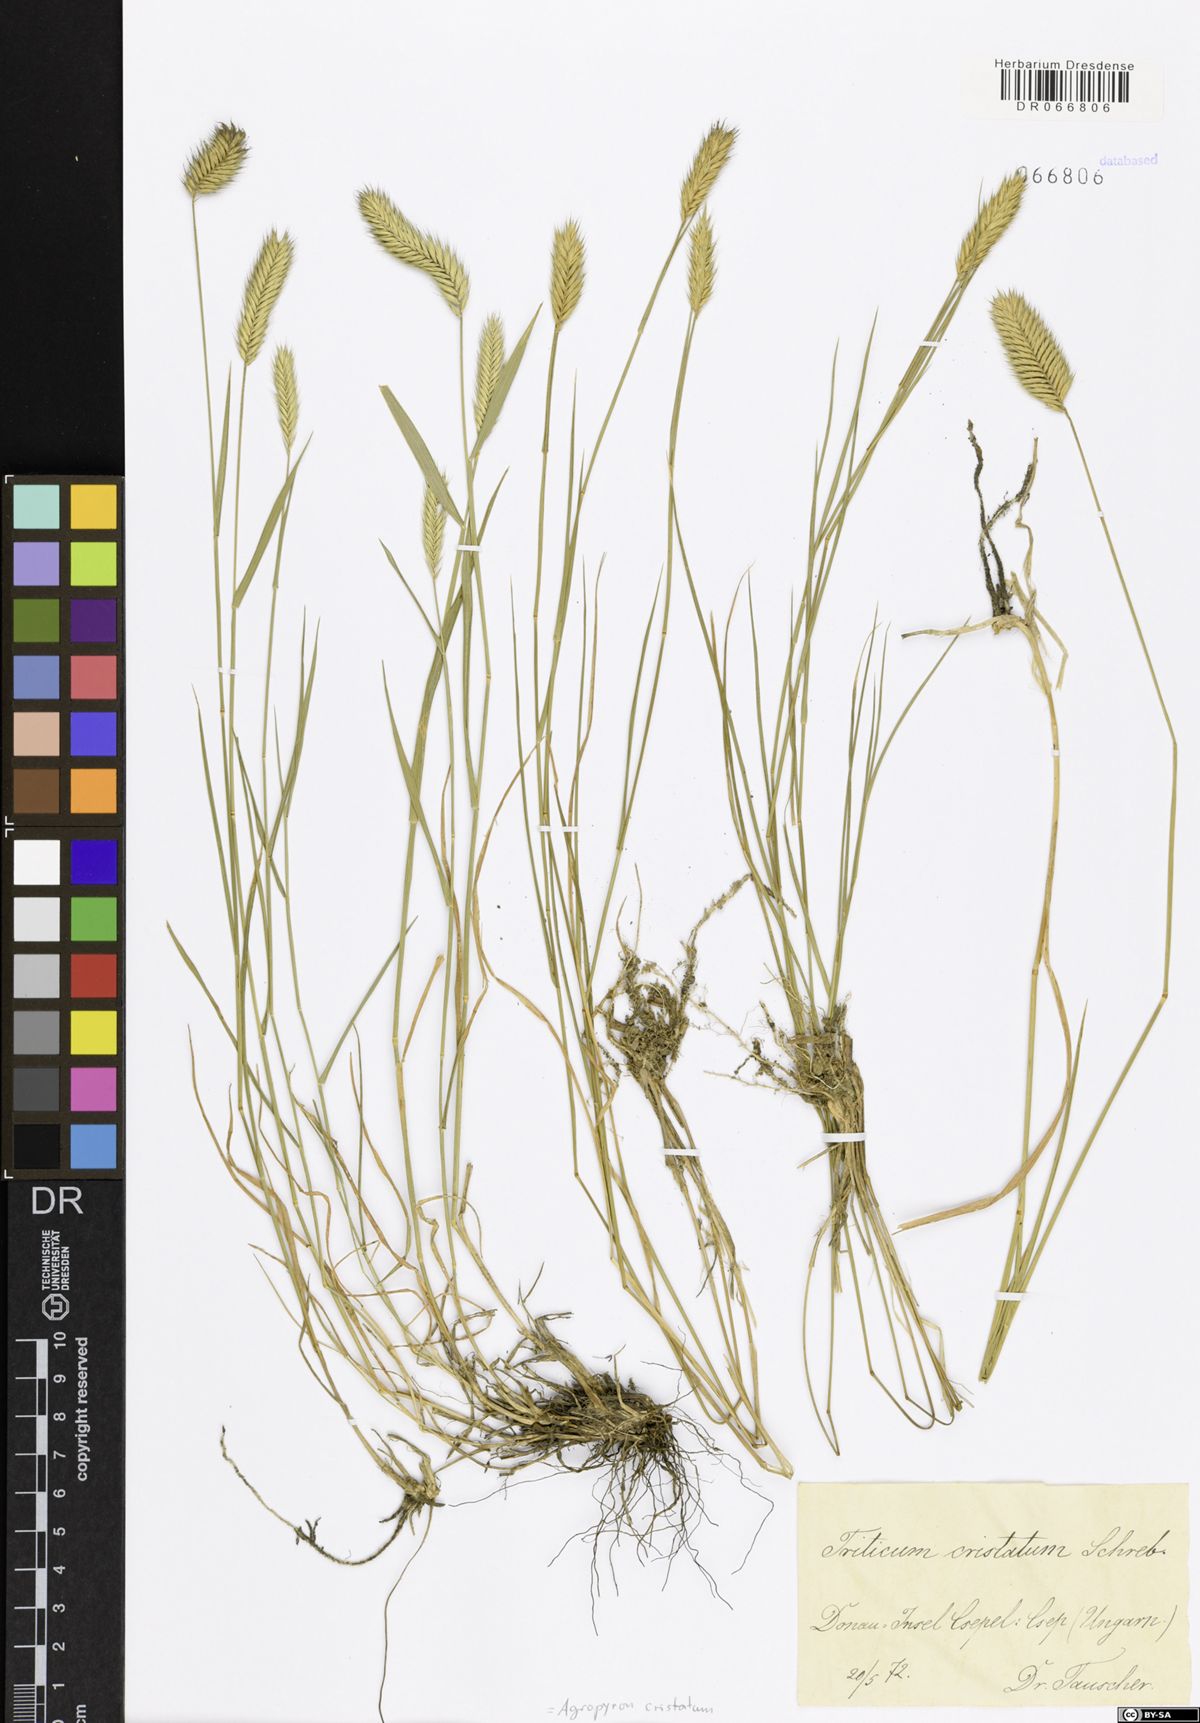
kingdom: Plantae
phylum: Tracheophyta
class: Liliopsida
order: Poales
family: Poaceae
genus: Agropyron
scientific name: Agropyron cristatum
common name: Crested wheatgrass
